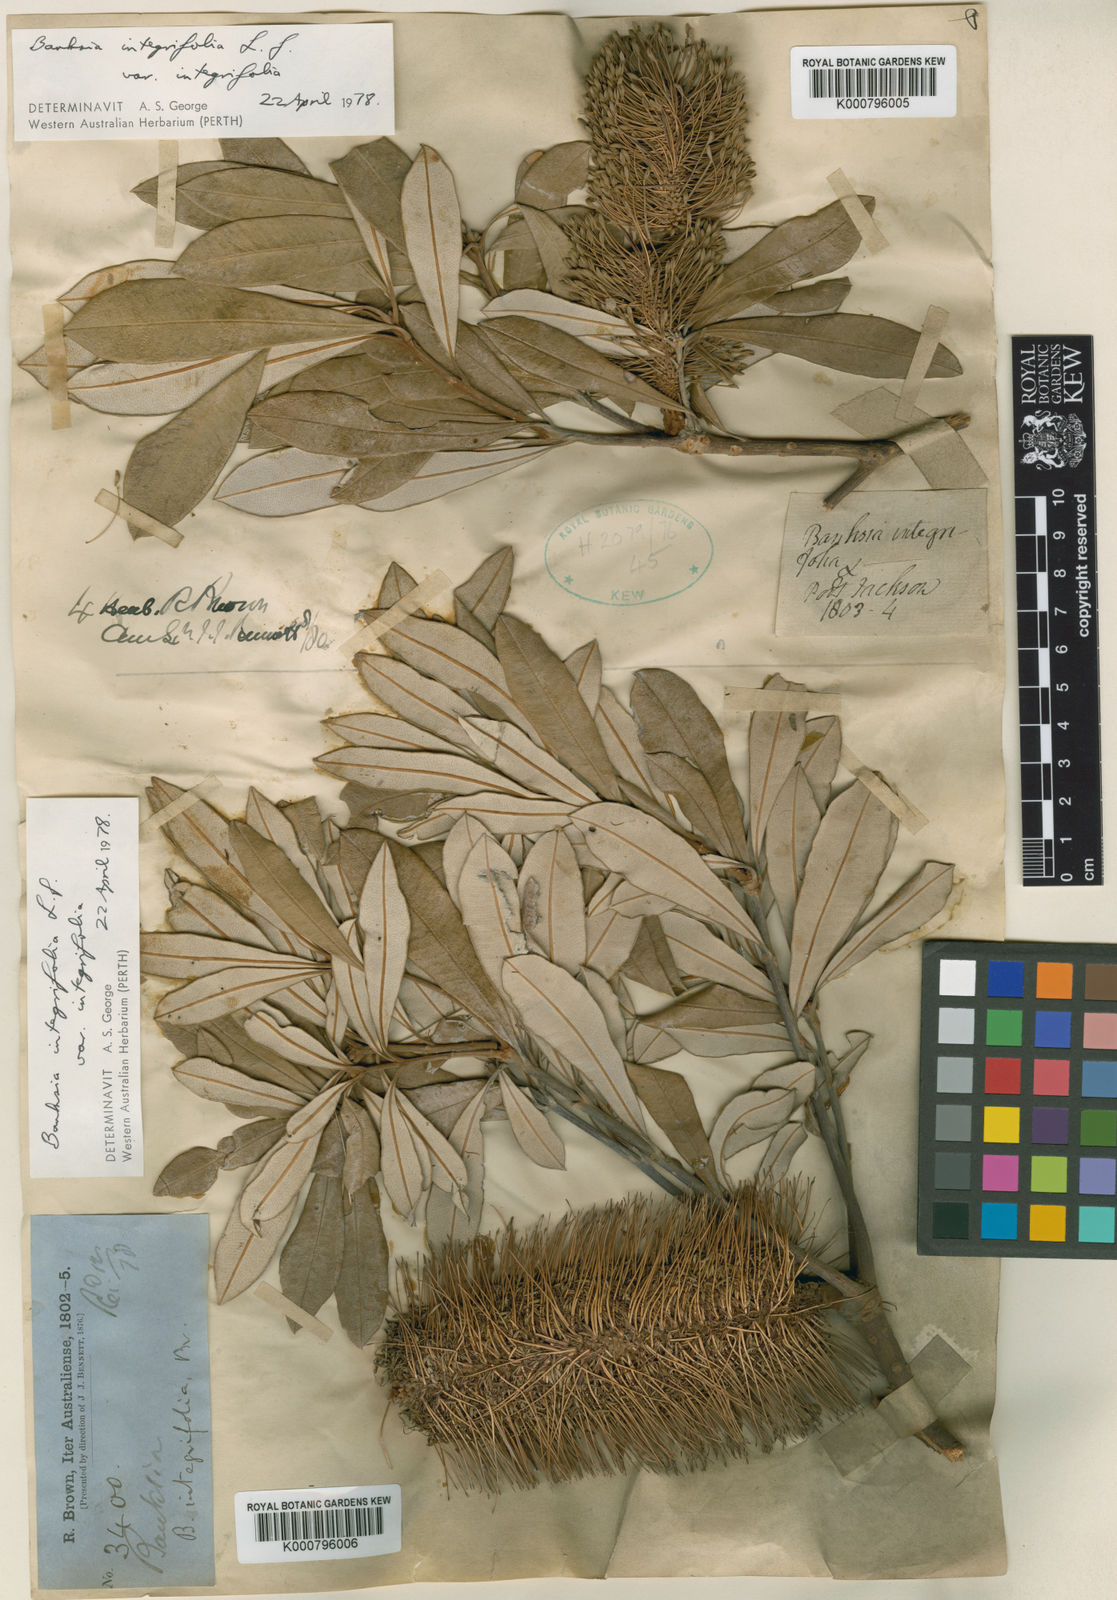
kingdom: Plantae
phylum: Tracheophyta
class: Magnoliopsida
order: Proteales
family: Proteaceae
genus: Banksia
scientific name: Banksia integrifolia
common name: White-honeysuckle
